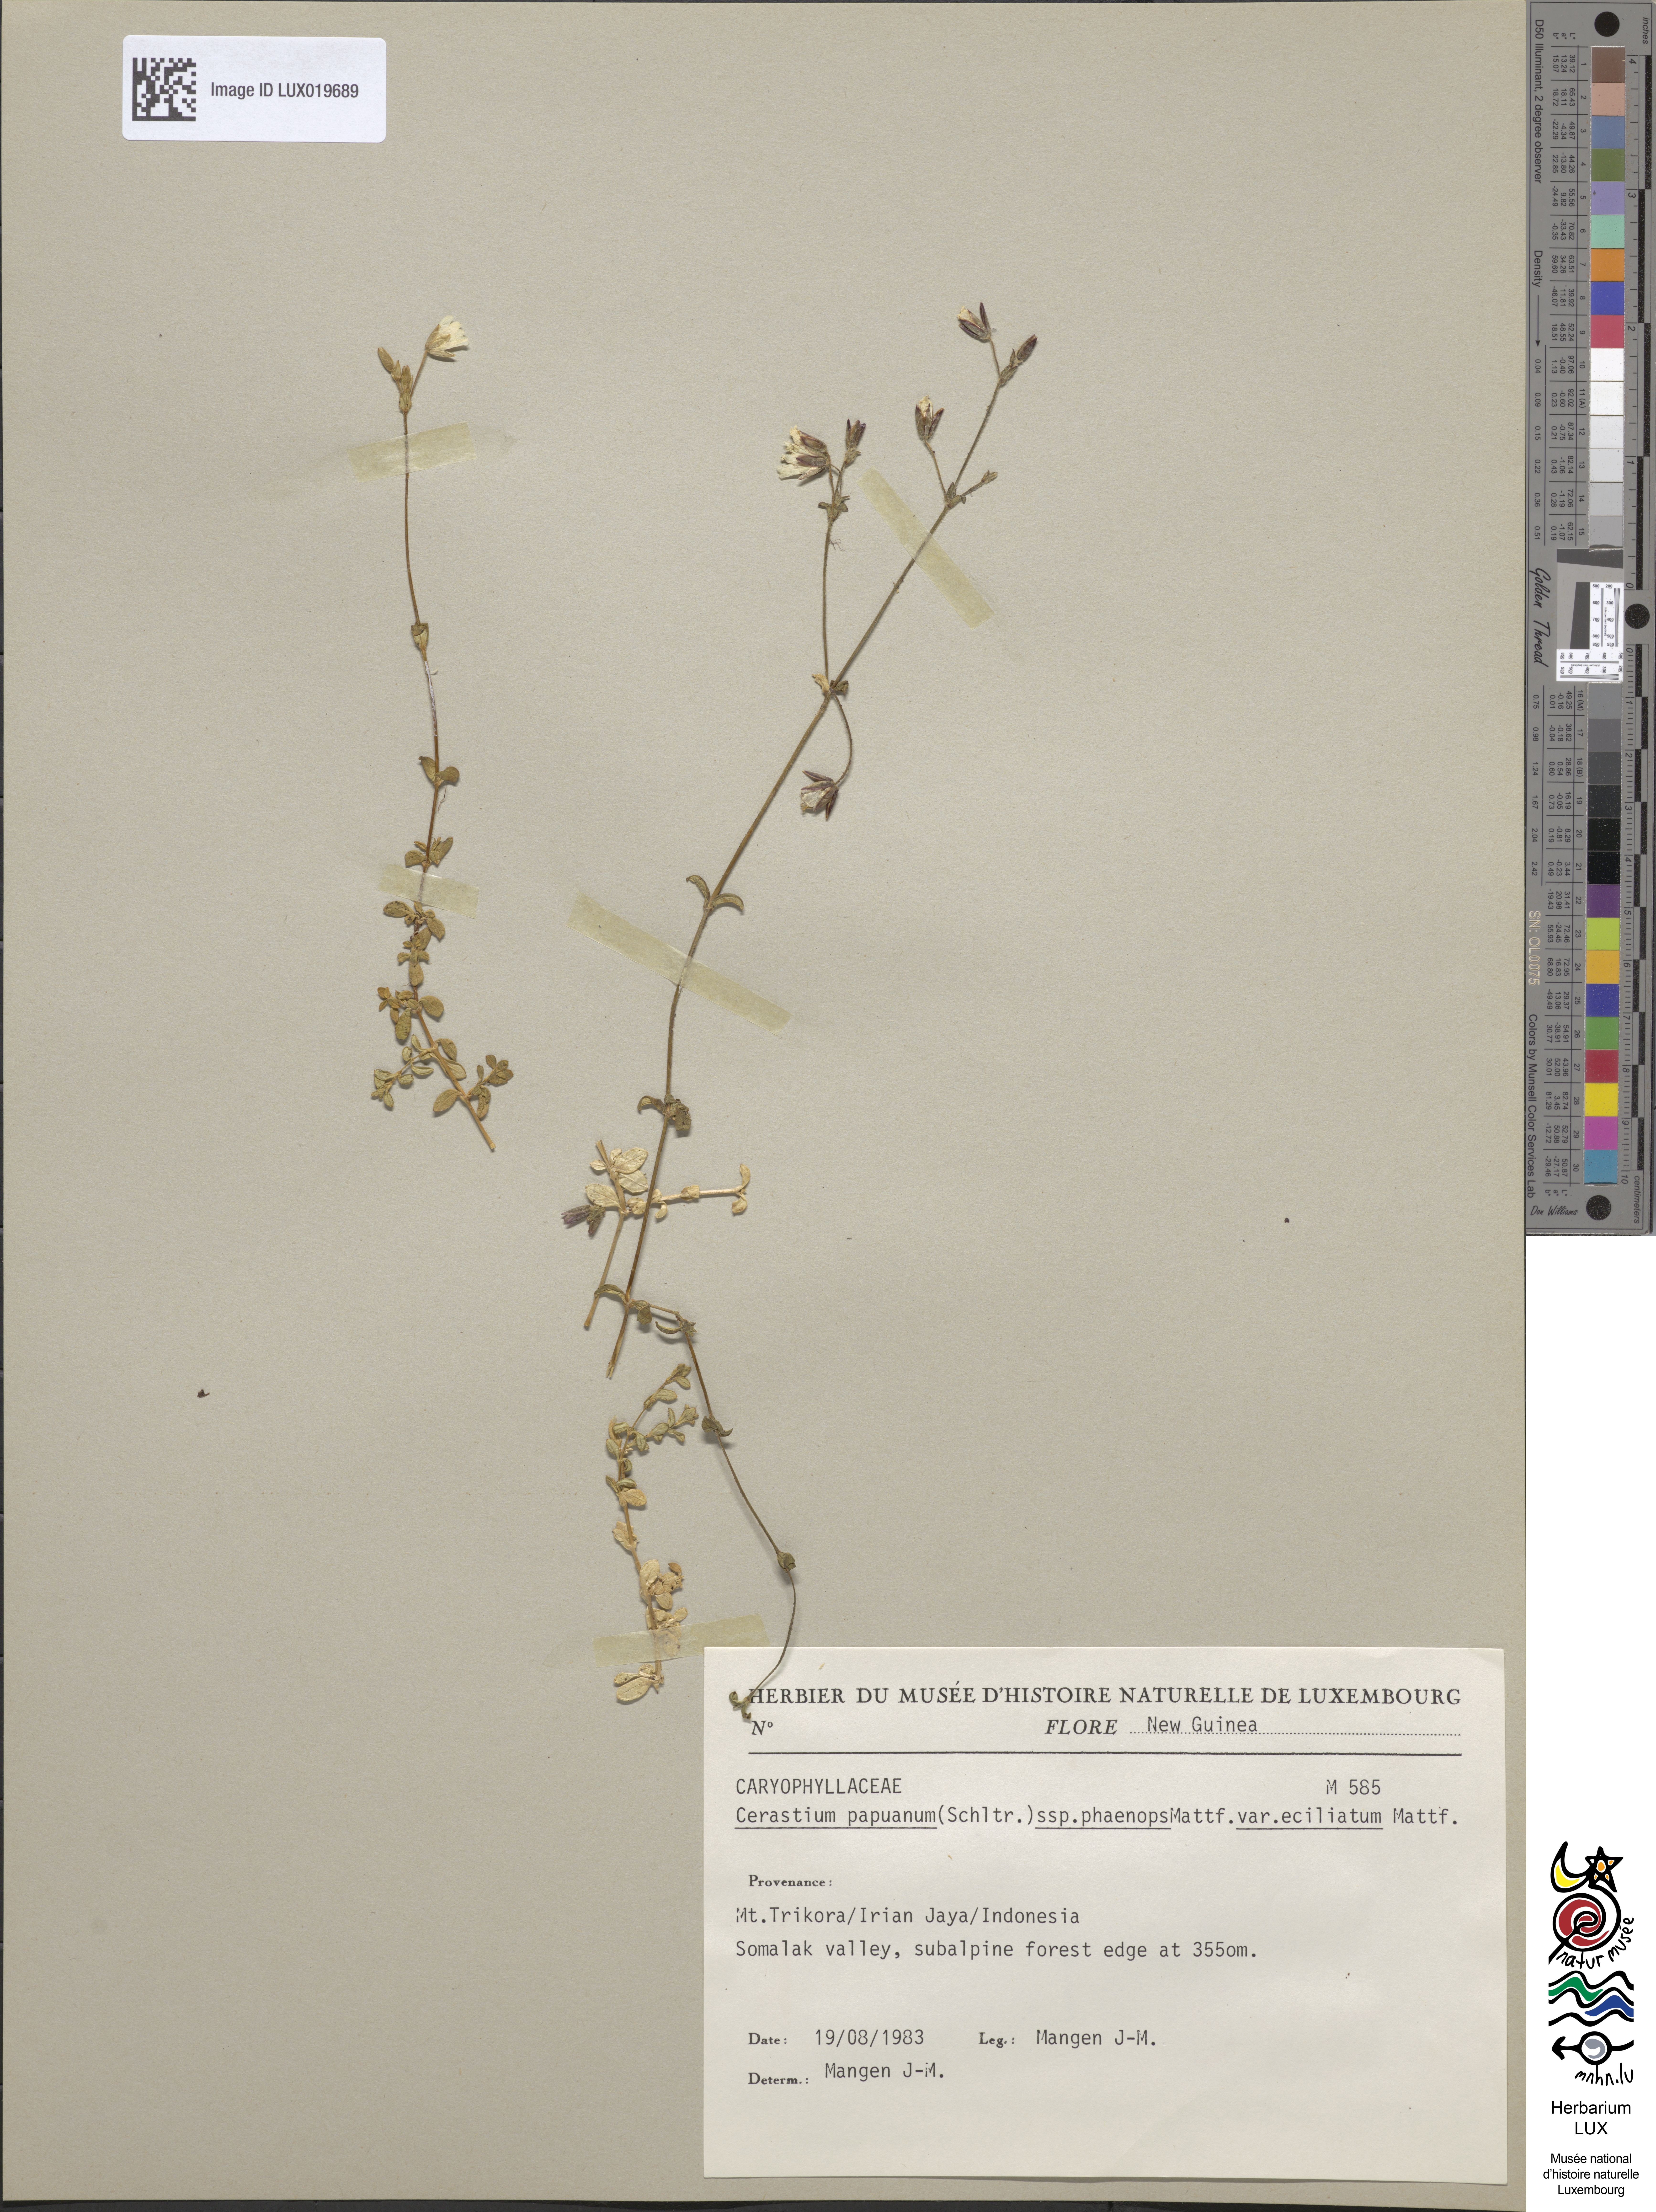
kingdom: Plantae
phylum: Tracheophyta
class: Magnoliopsida
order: Caryophyllales
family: Caryophyllaceae
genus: Cerastium
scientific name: Cerastium papuanum
